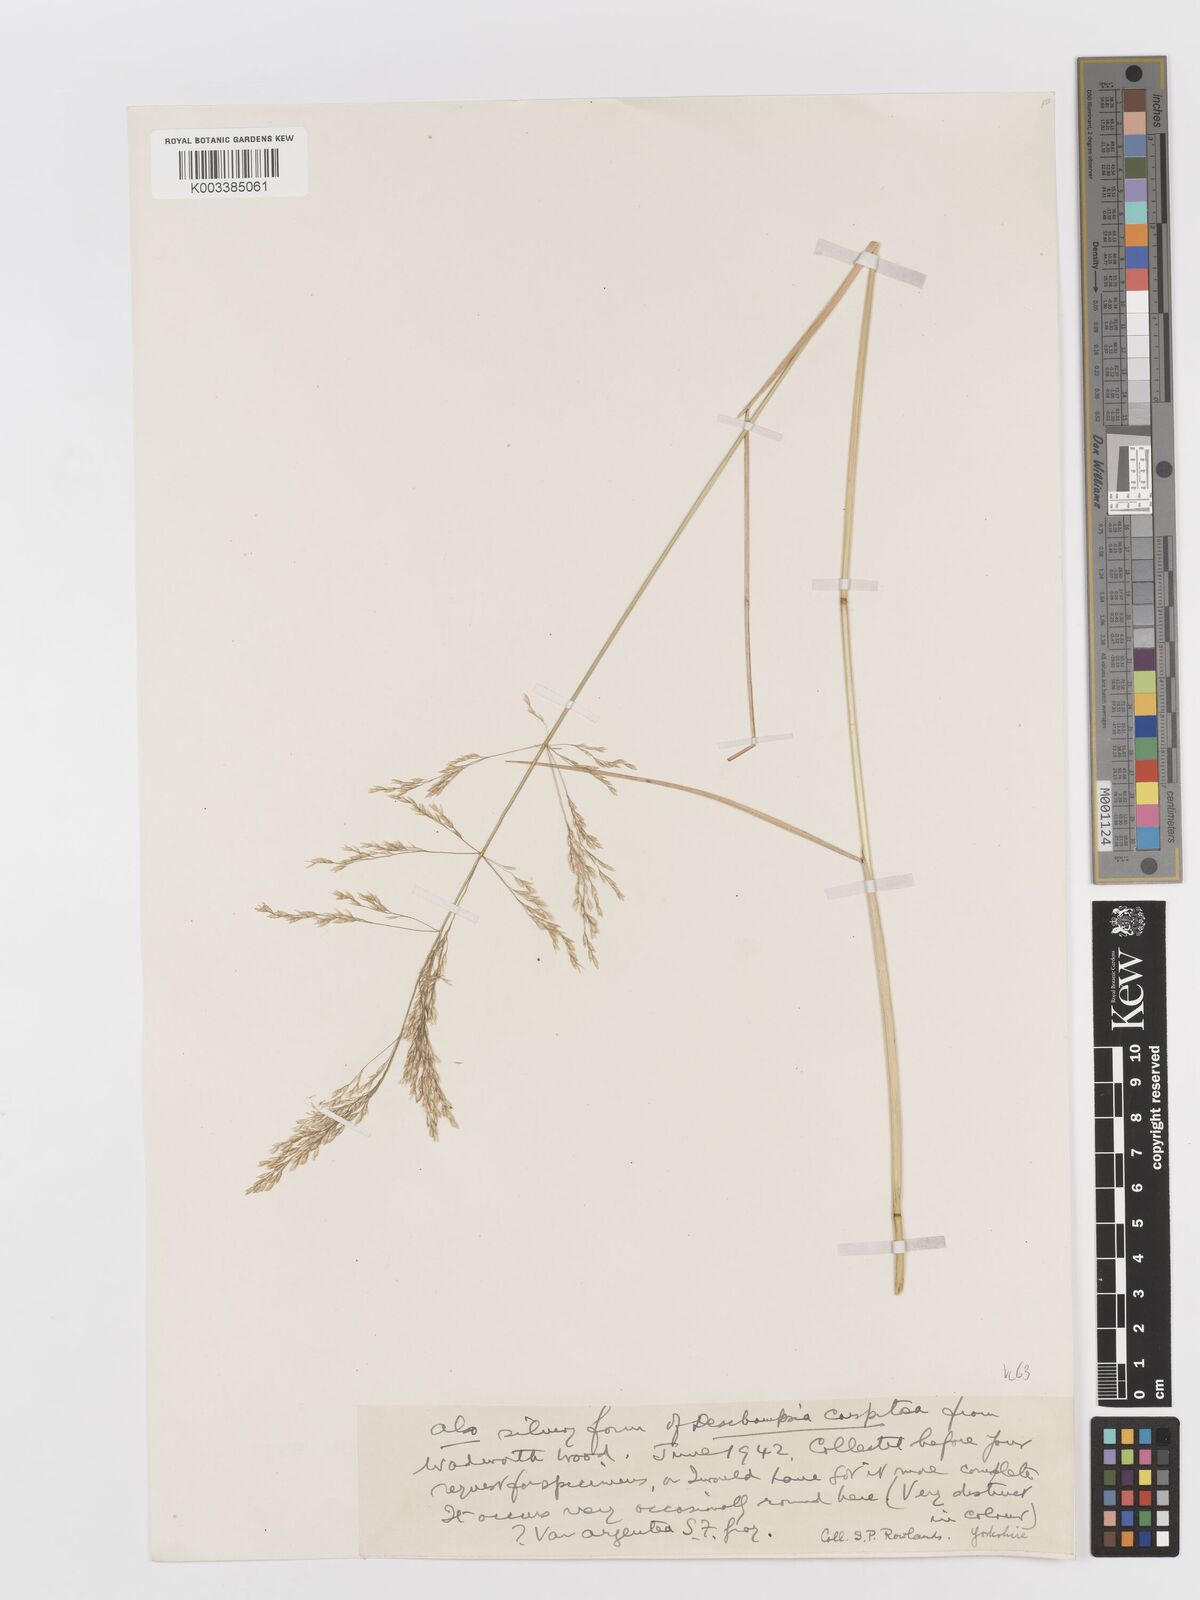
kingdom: Plantae
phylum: Tracheophyta
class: Liliopsida
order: Poales
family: Poaceae
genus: Deschampsia
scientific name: Deschampsia cespitosa
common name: Tufted hair-grass
